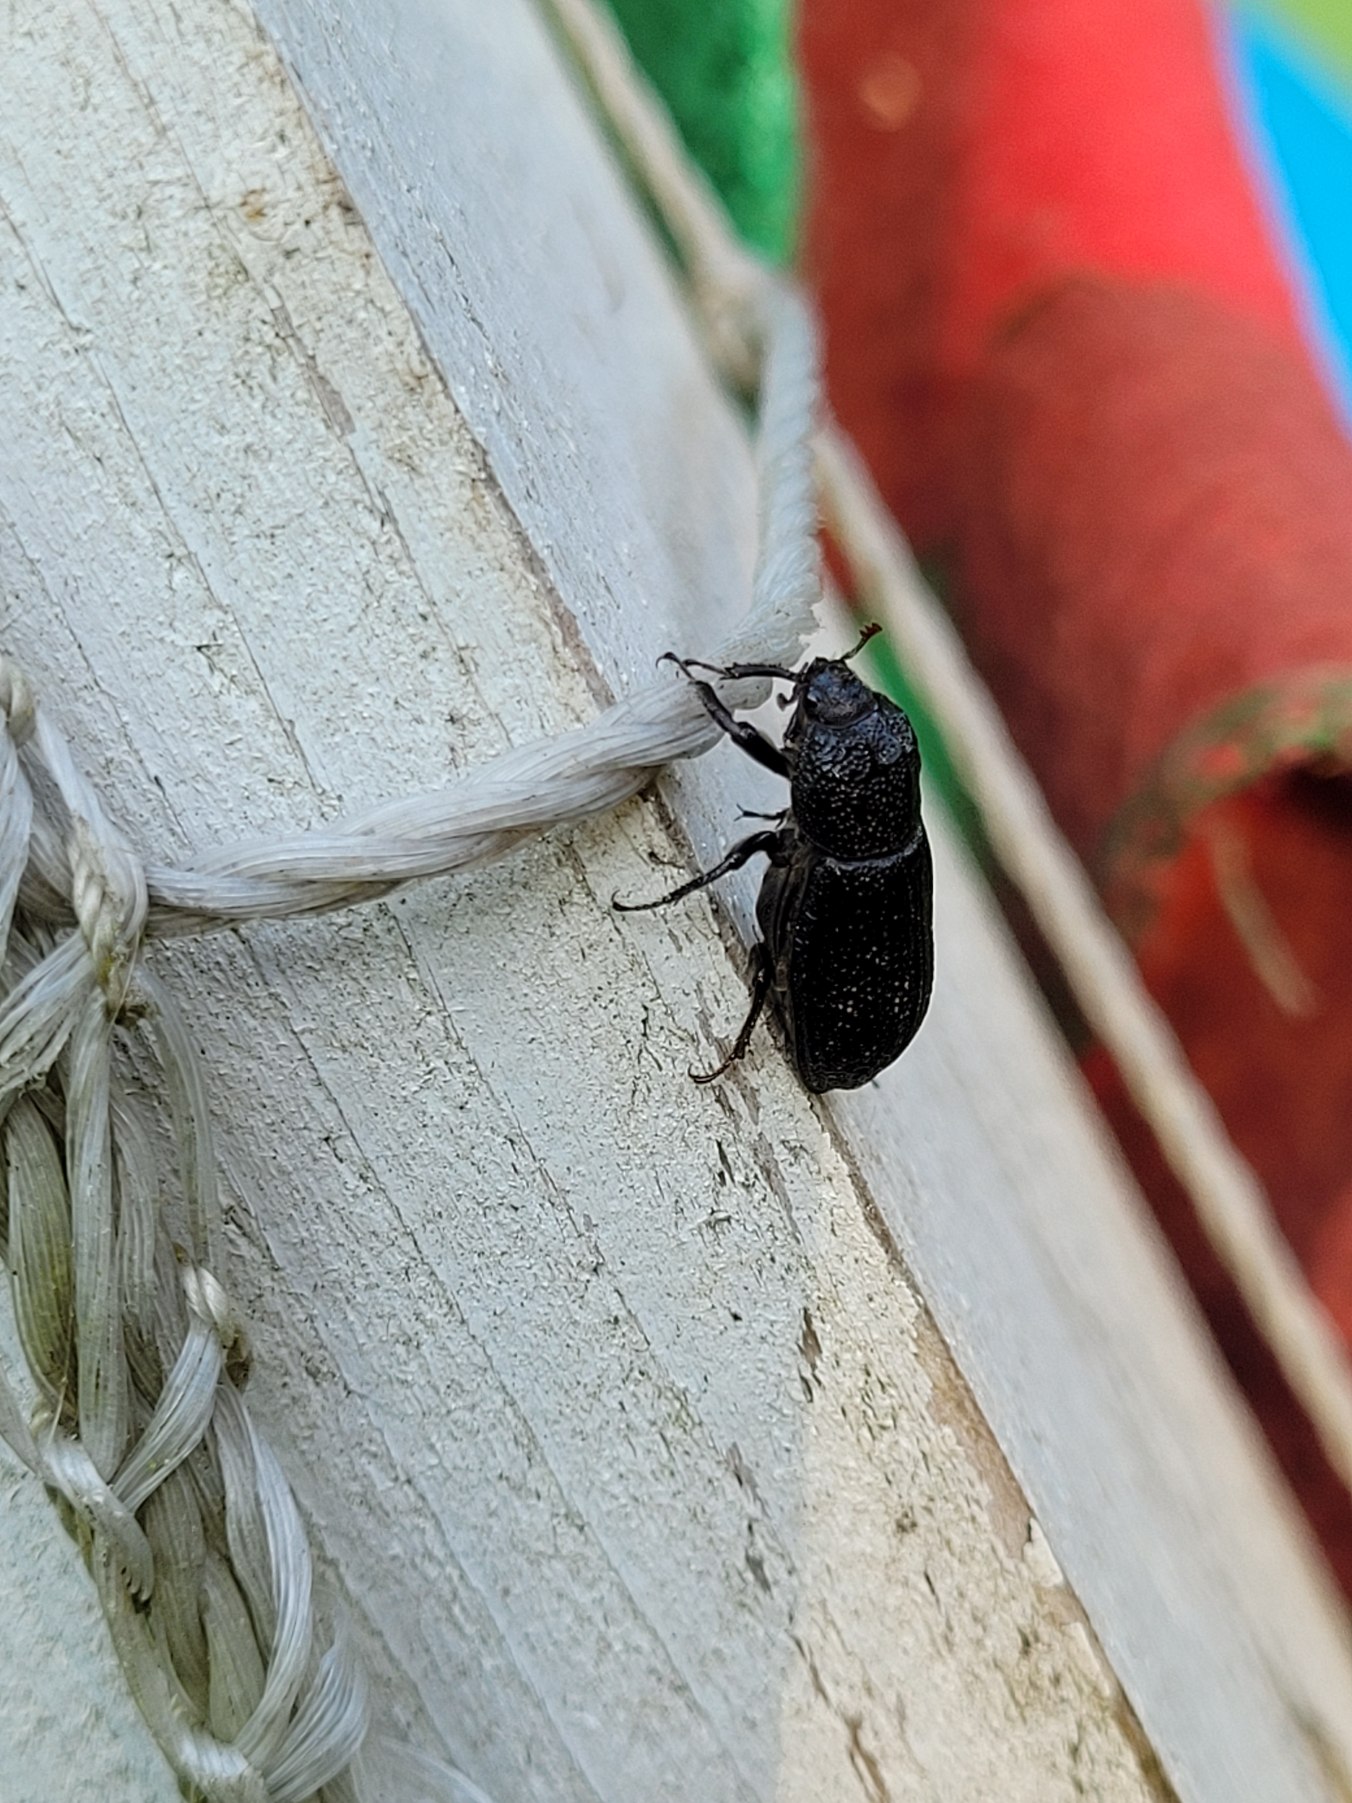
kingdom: Animalia
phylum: Arthropoda
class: Insecta
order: Coleoptera
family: Lucanidae
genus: Sinodendron
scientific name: Sinodendron cylindricum
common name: Valsehjort
